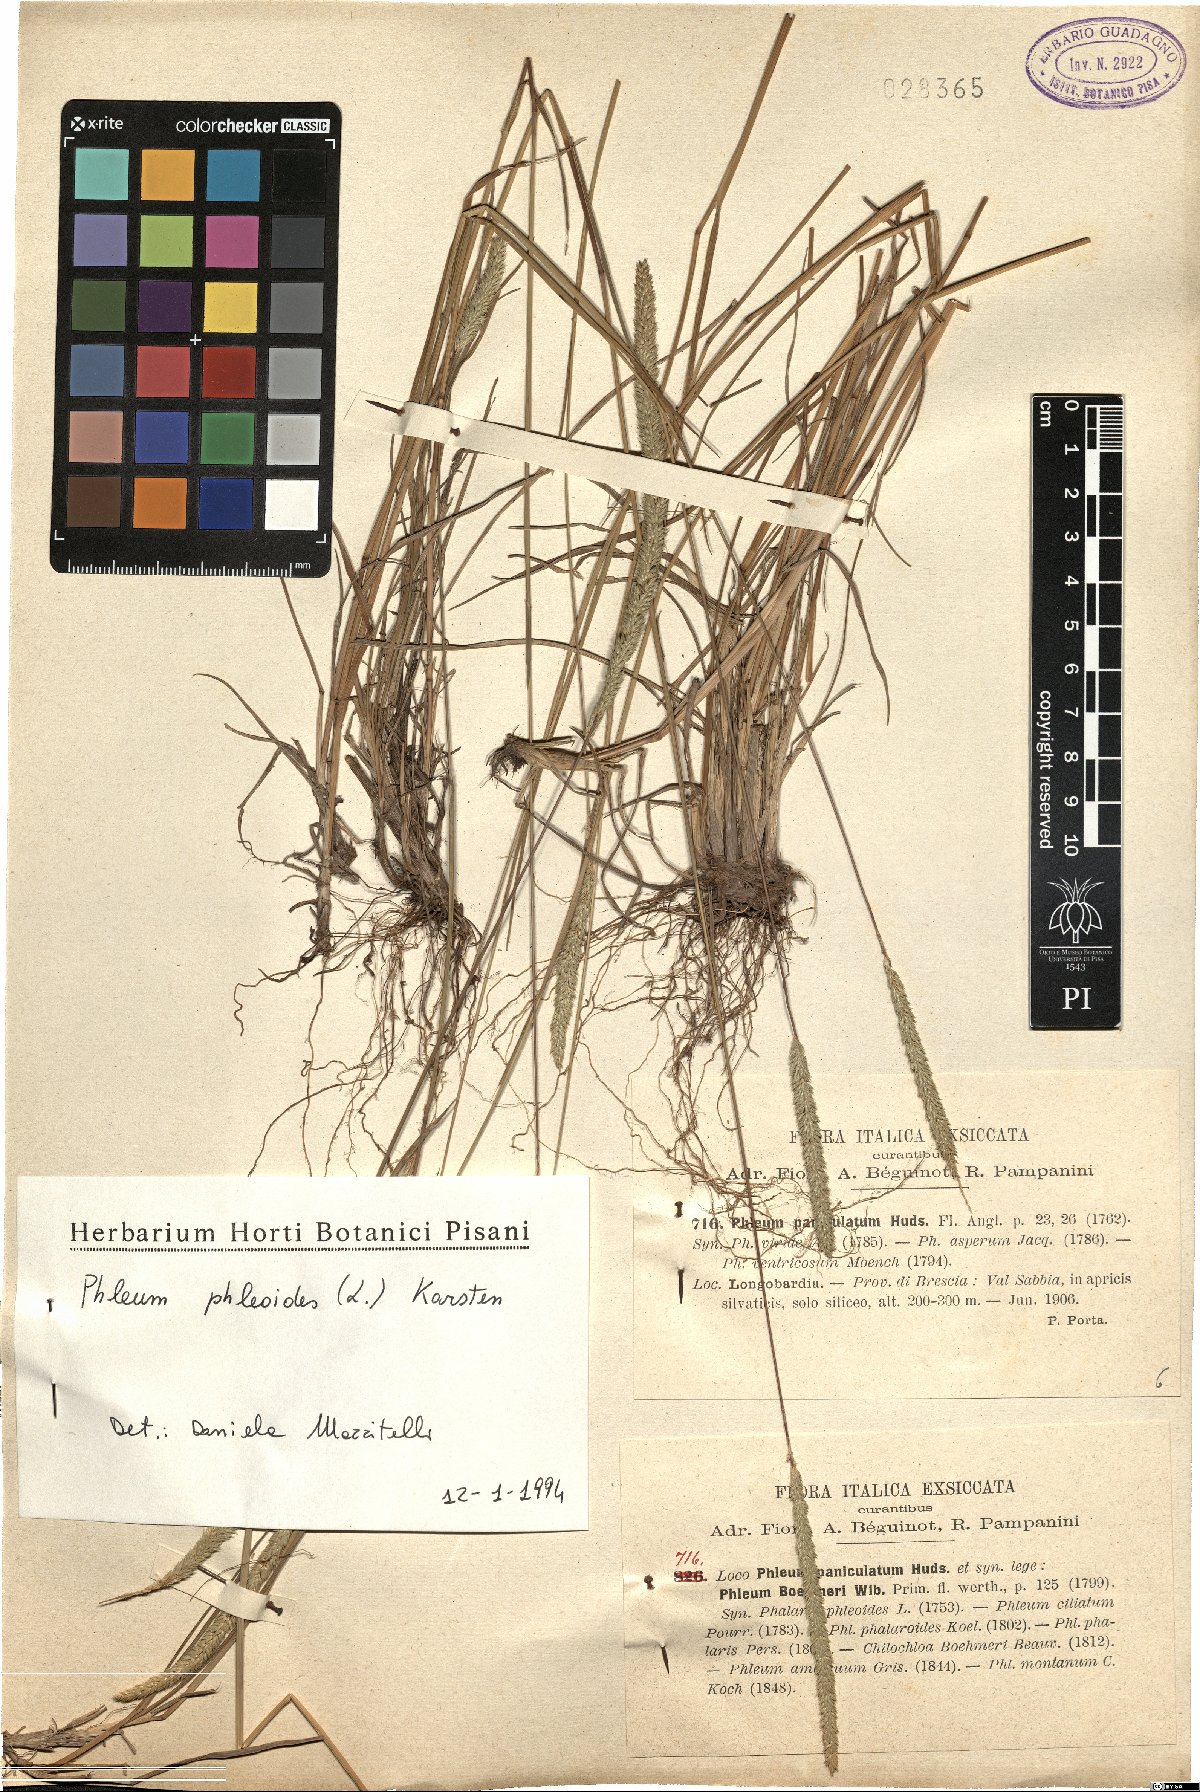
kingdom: Plantae
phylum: Tracheophyta
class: Liliopsida
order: Poales
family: Poaceae
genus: Phleum
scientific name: Phleum phleoides
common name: Purple-stem cat's-tail
